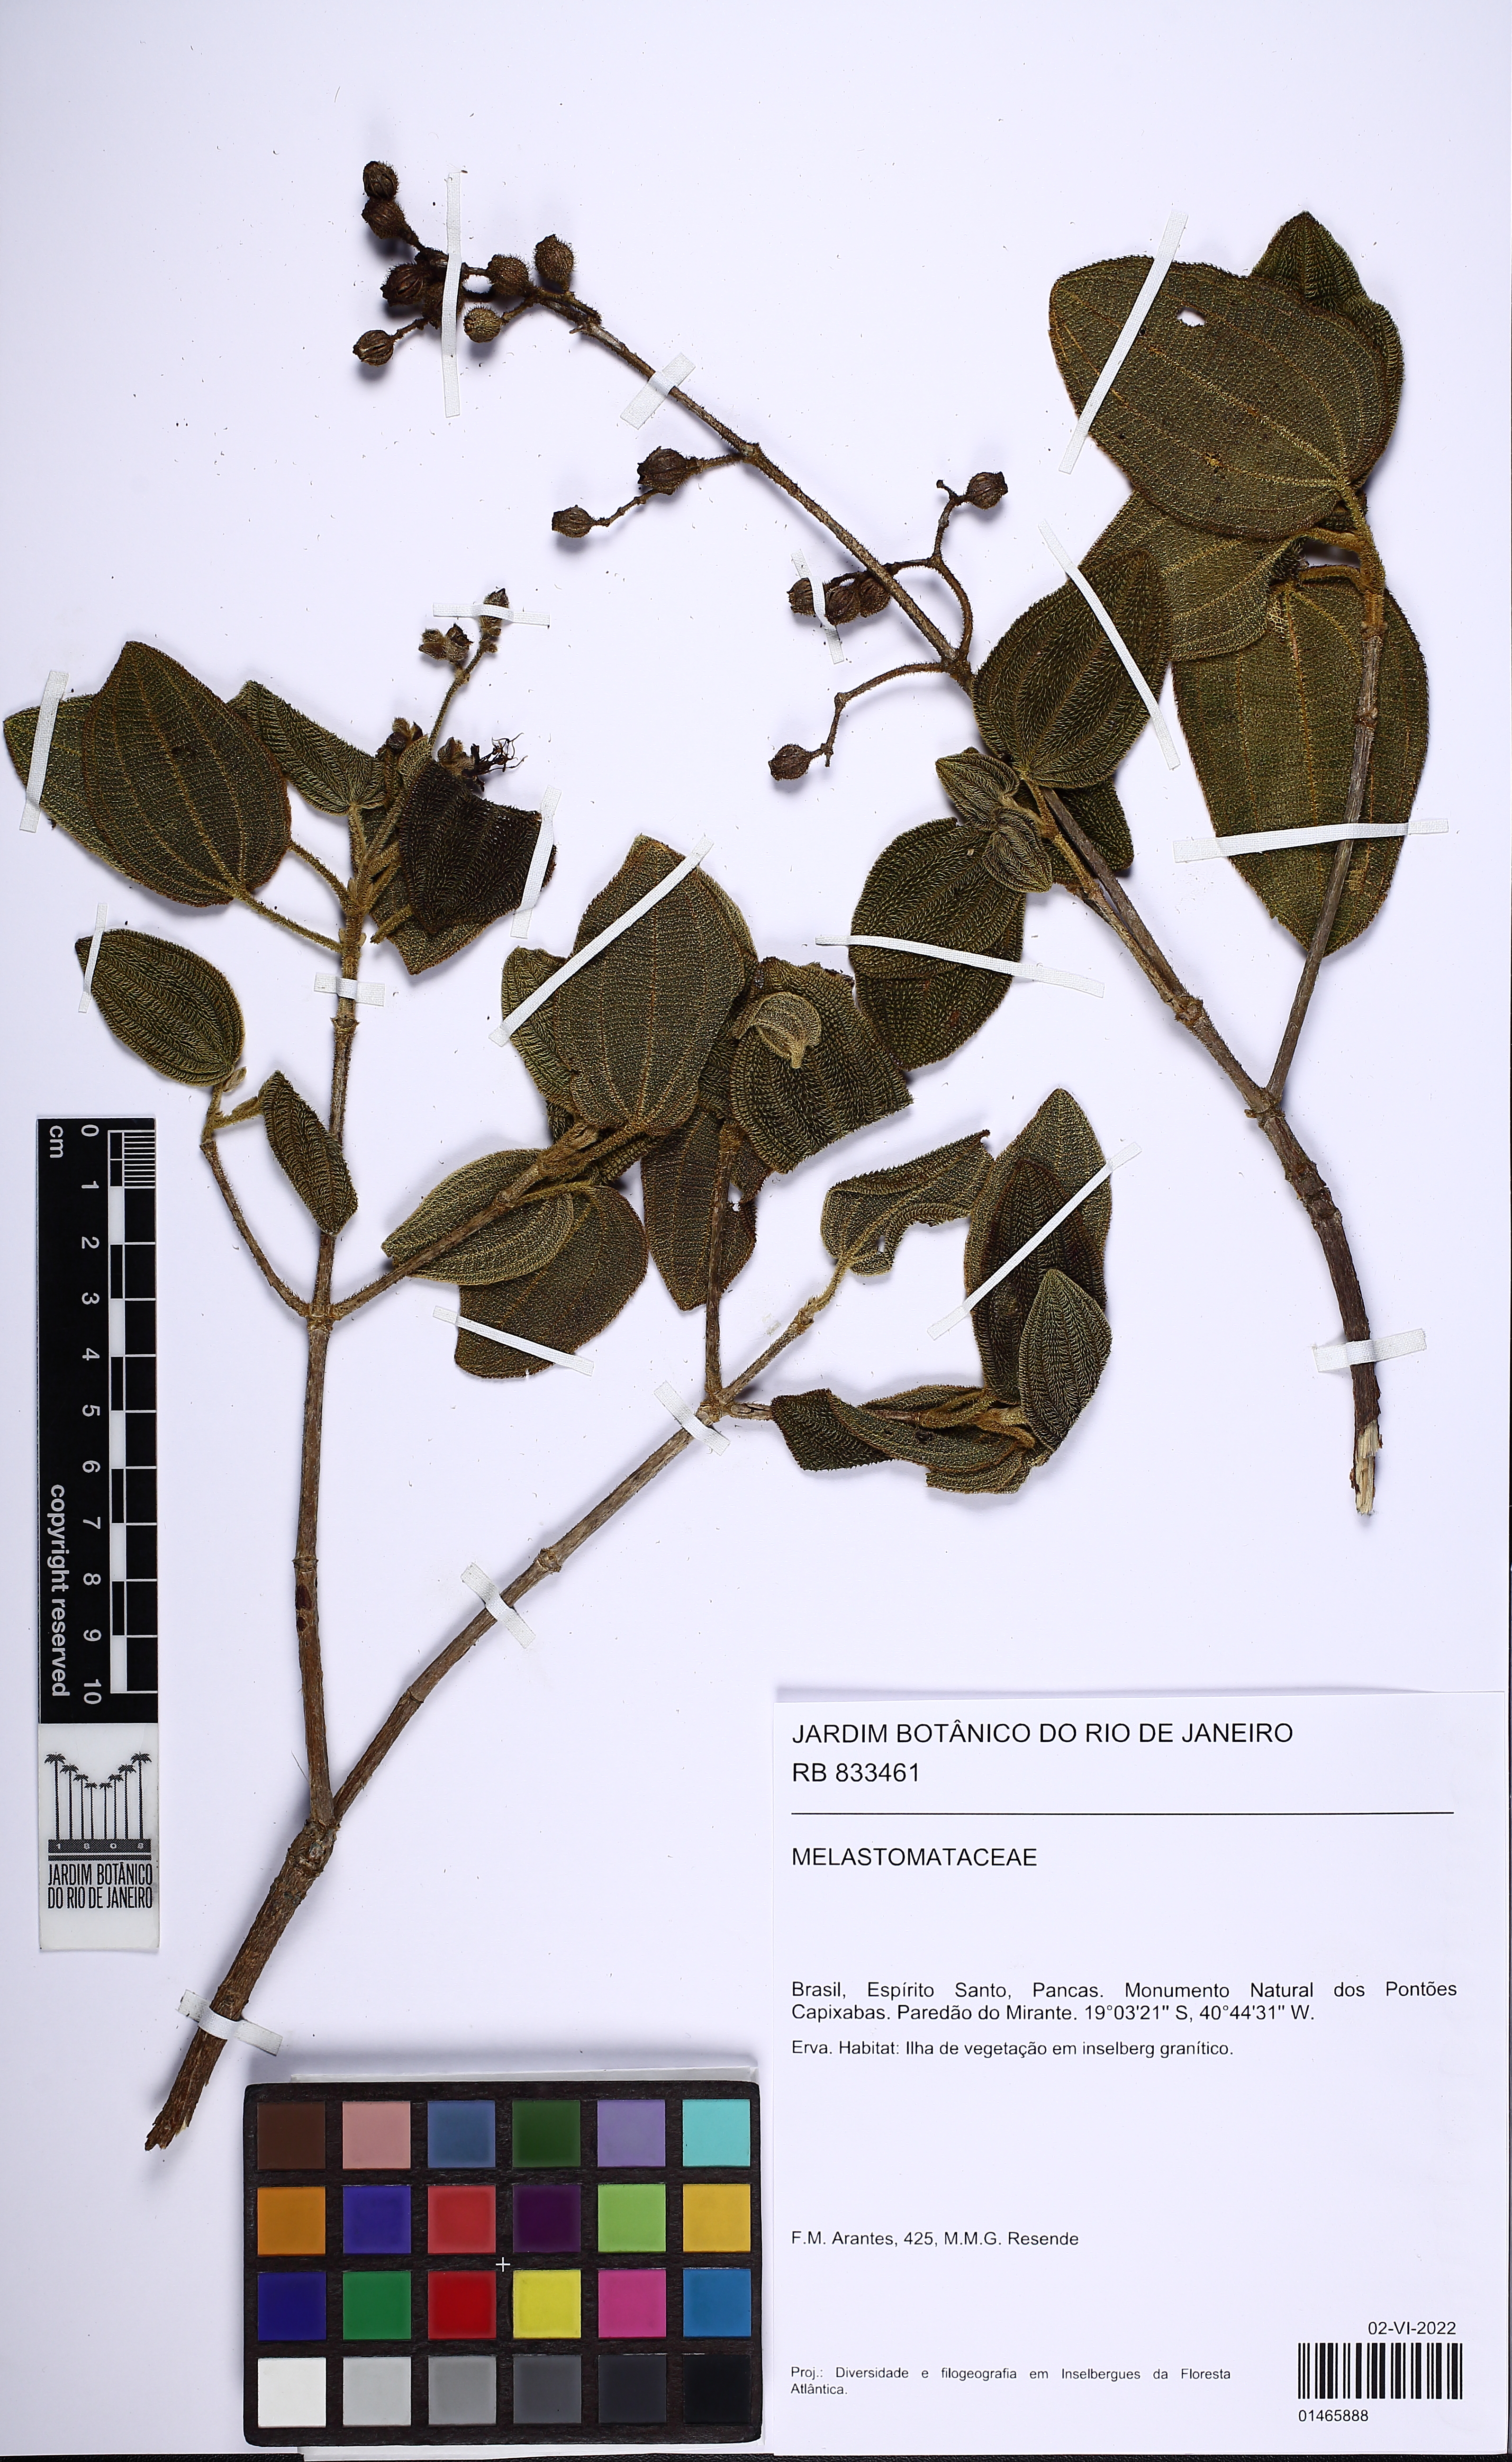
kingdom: Plantae
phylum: Tracheophyta
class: Magnoliopsida
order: Myrtales
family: Melastomataceae
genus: Pleroma
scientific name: Pleroma
